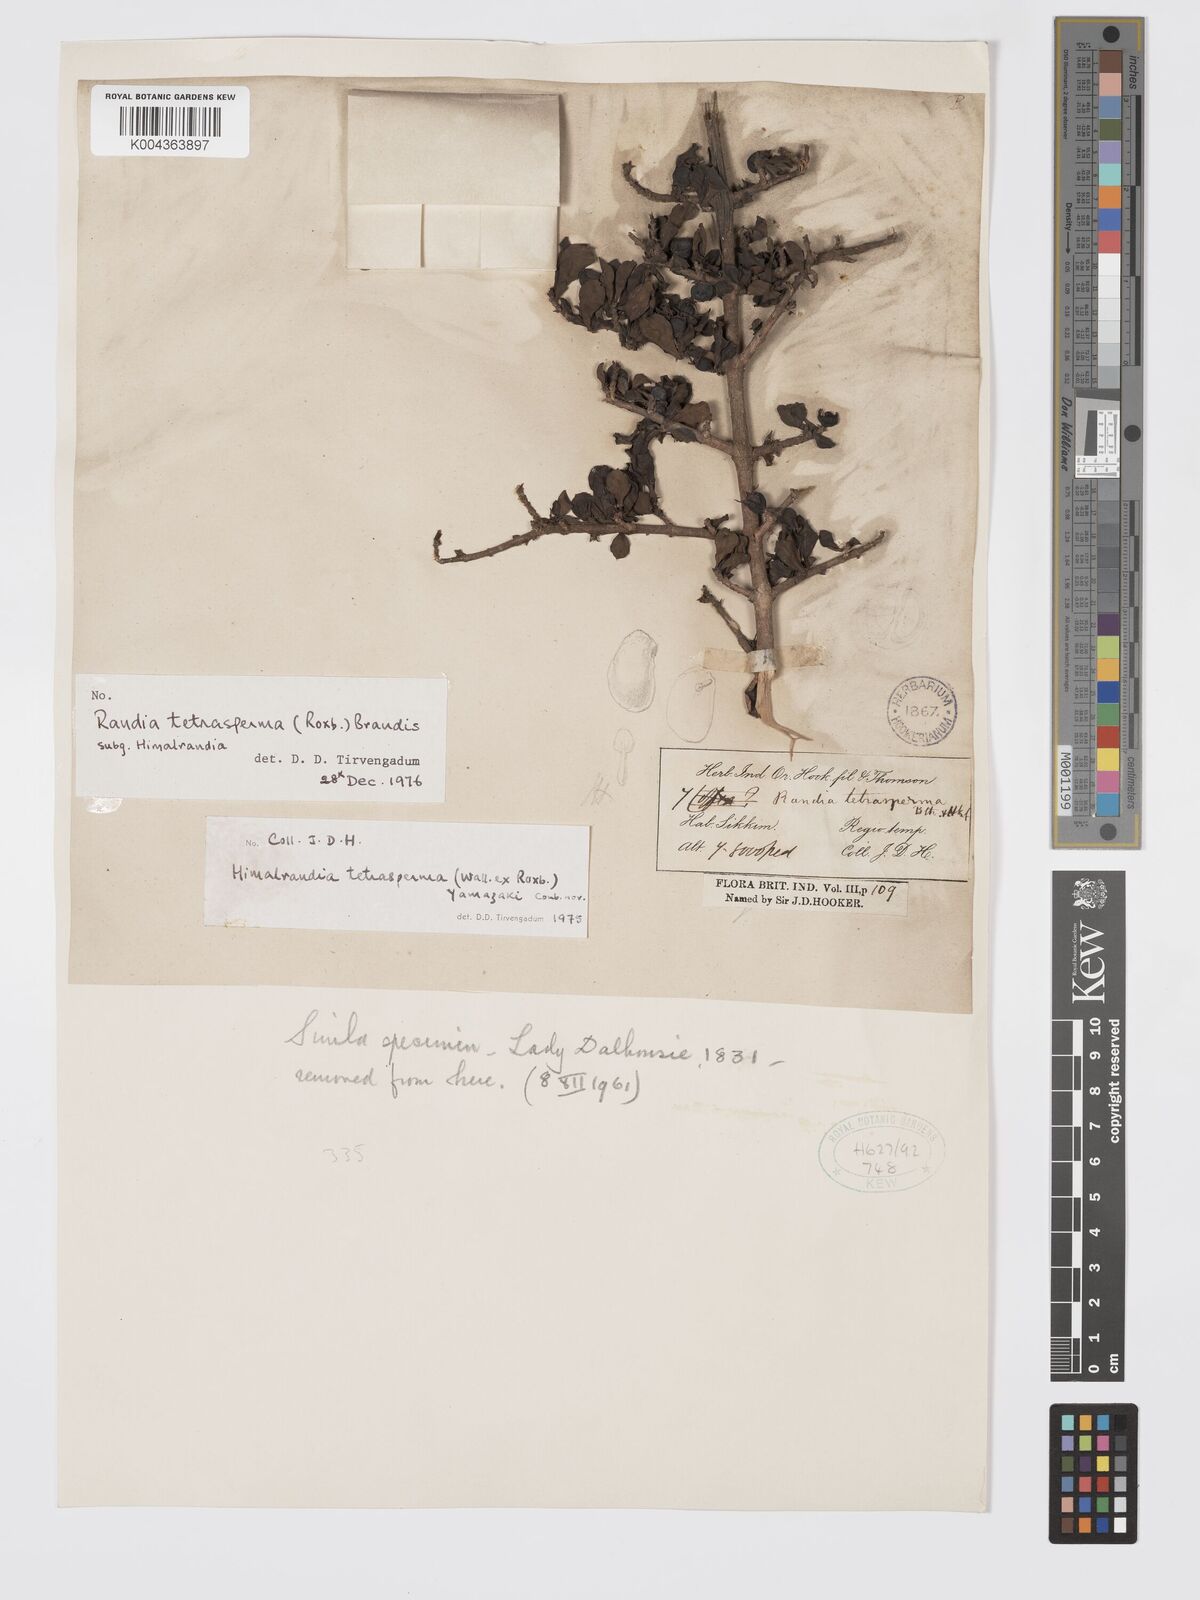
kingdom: Plantae
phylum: Tracheophyta
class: Magnoliopsida
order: Gentianales
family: Rubiaceae
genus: Himalrandia
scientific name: Himalrandia tetrasperma
